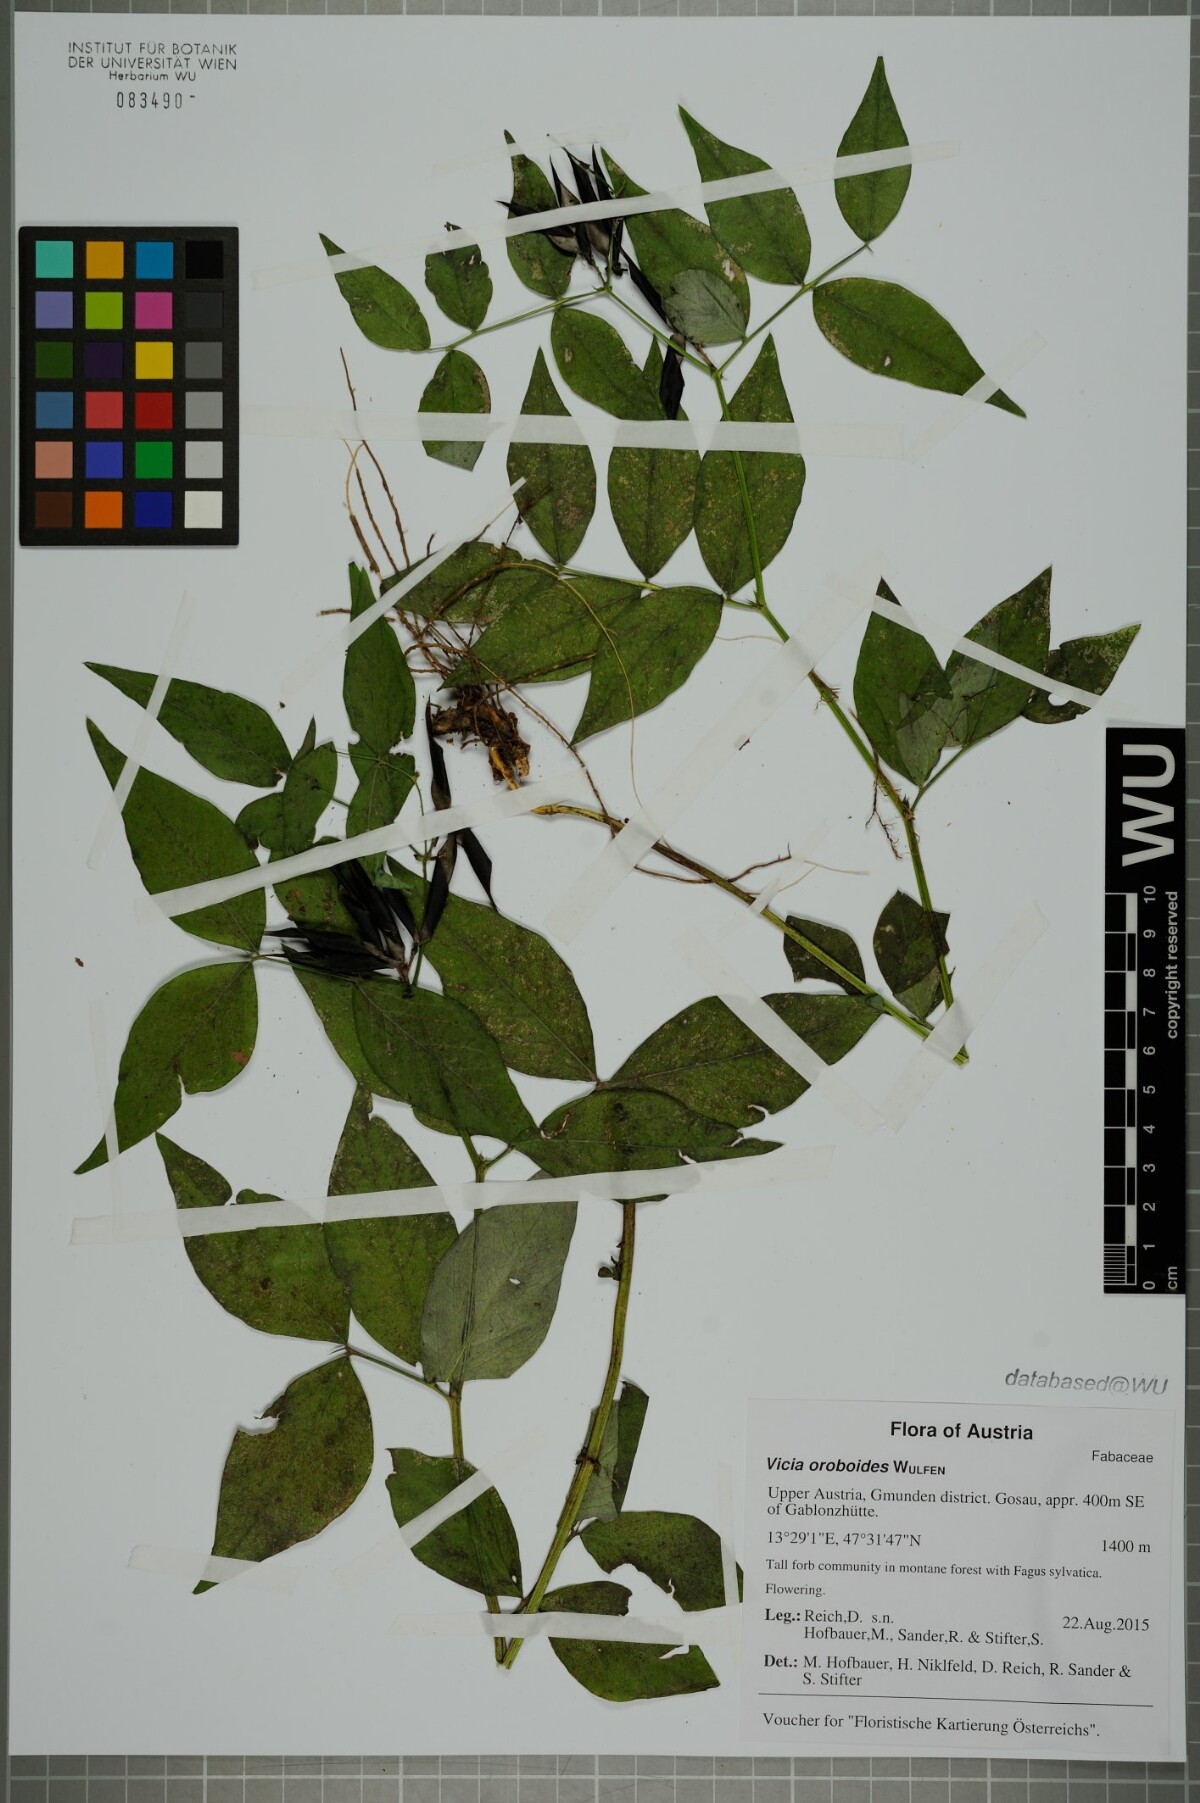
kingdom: Plantae
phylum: Tracheophyta
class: Magnoliopsida
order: Fabales
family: Fabaceae
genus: Vicia
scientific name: Vicia oroboides
